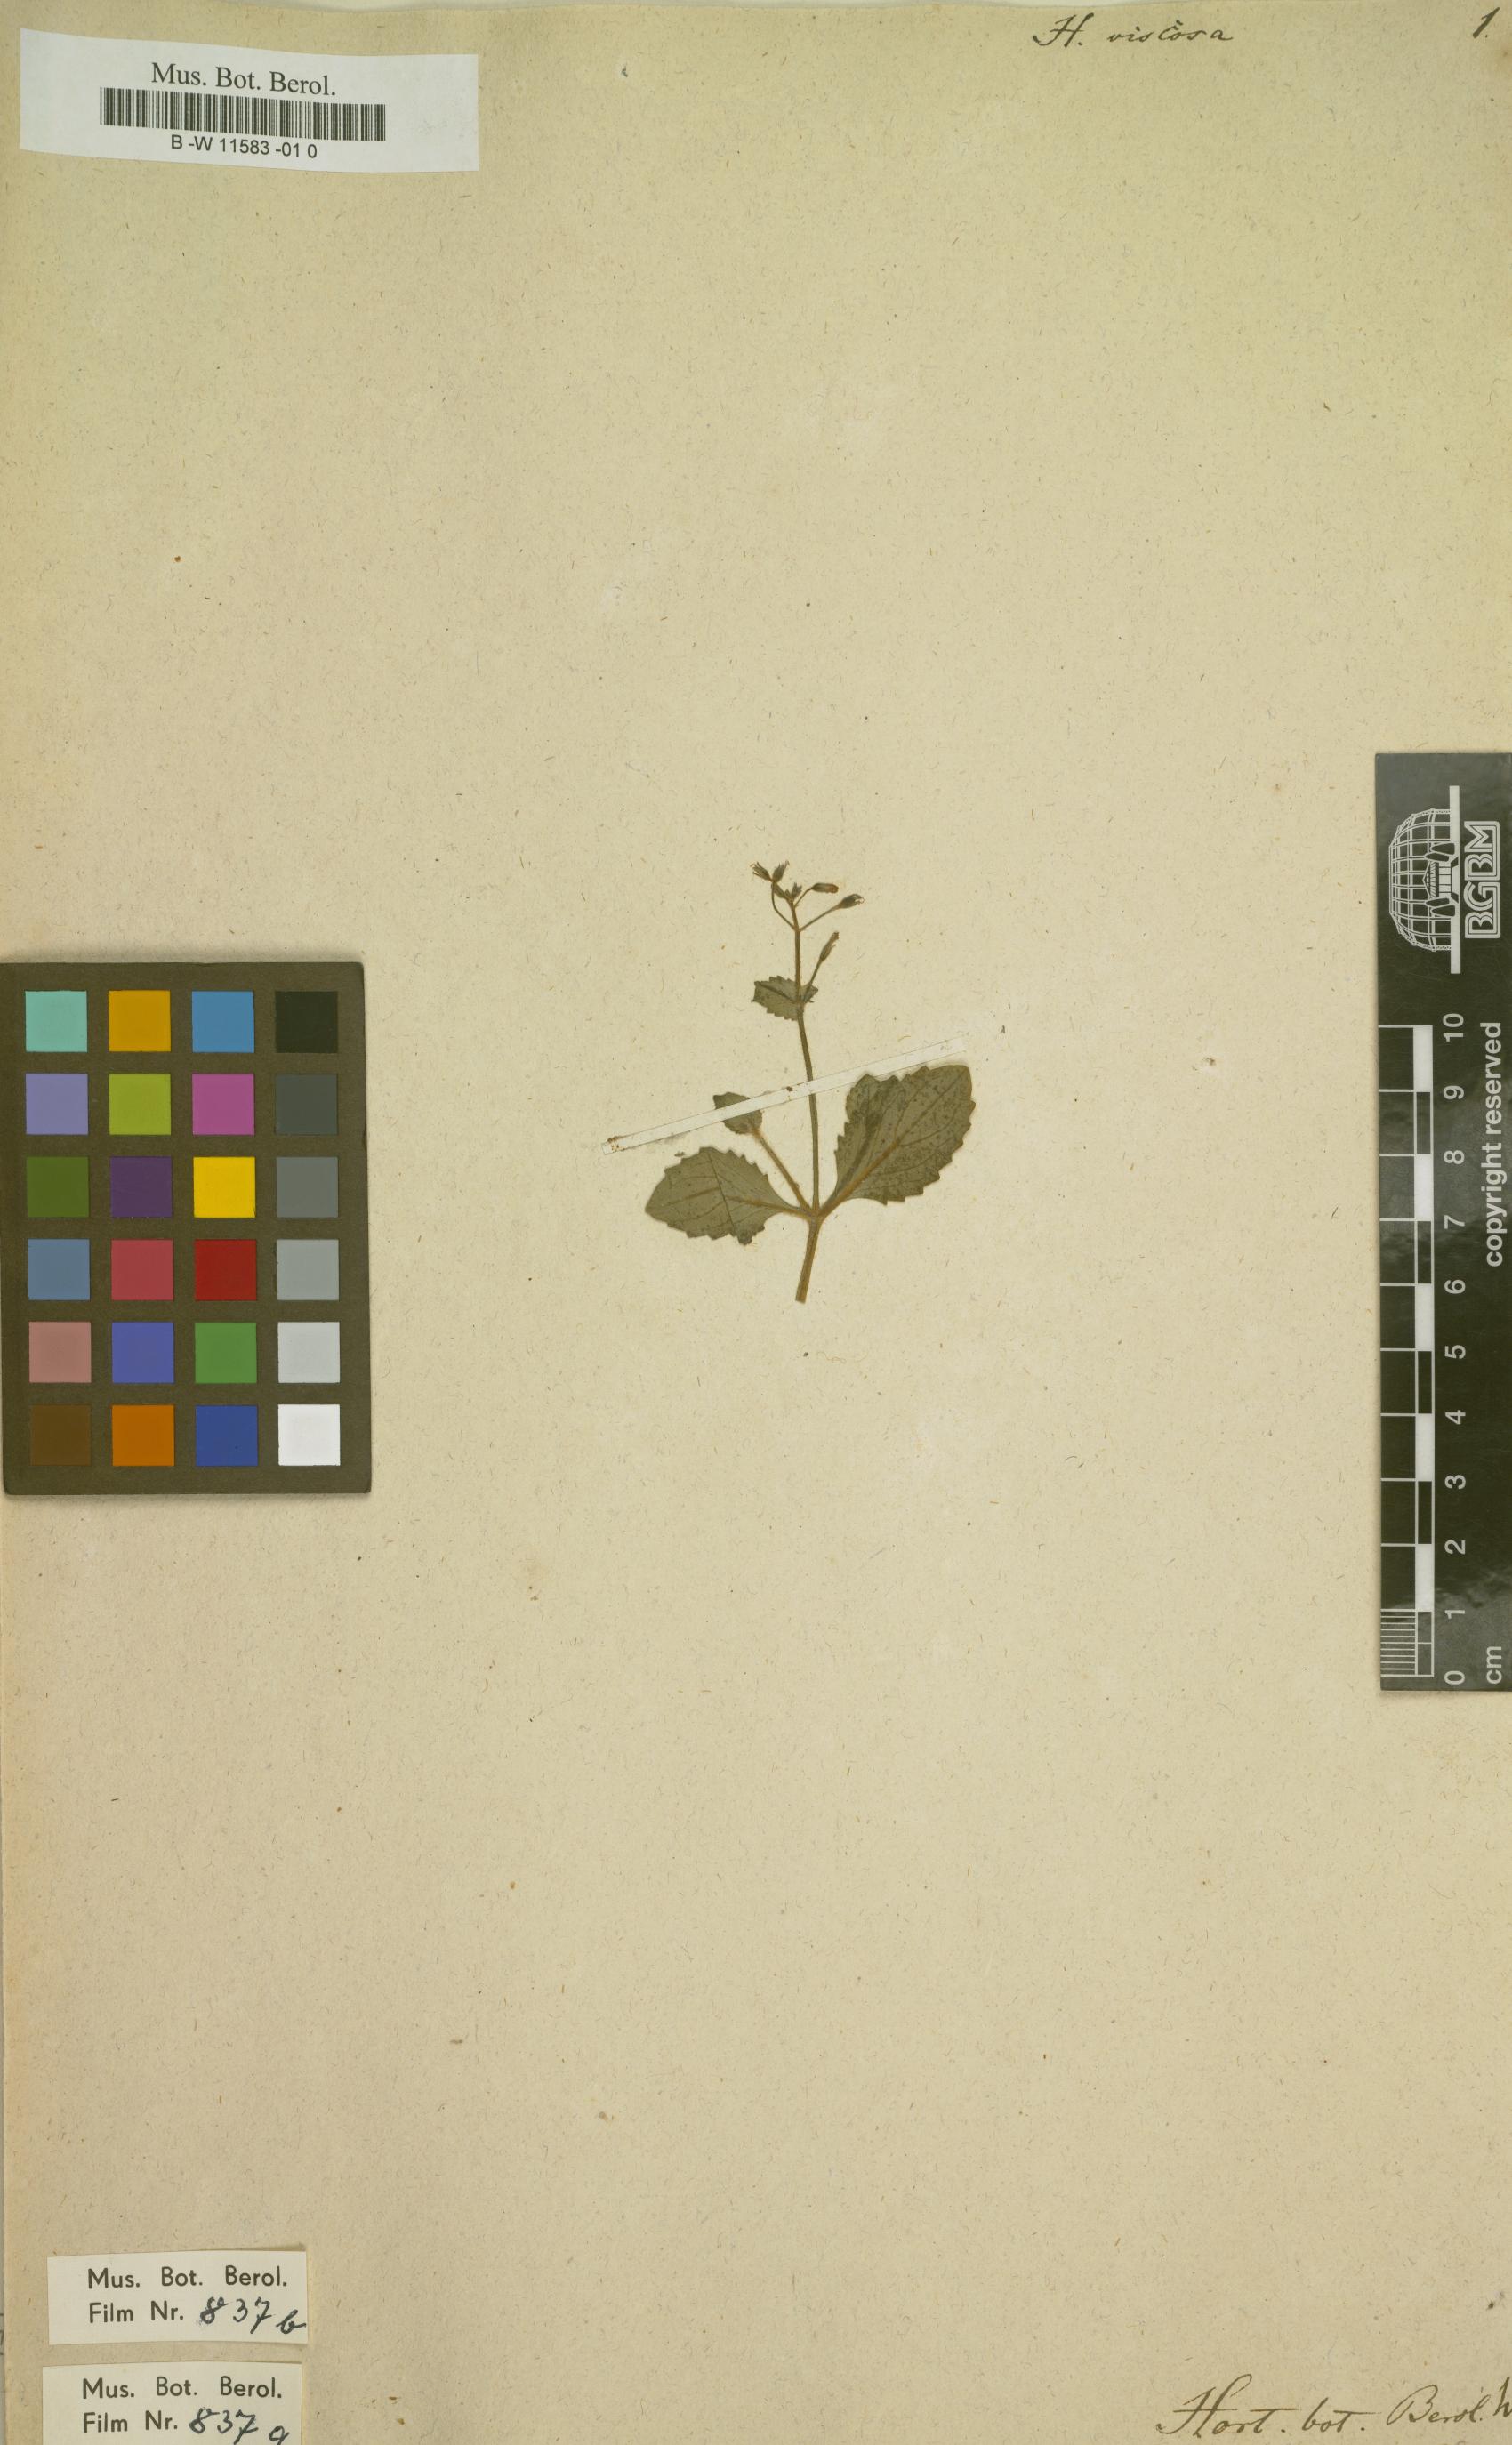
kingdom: Plantae
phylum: Tracheophyta
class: Magnoliopsida
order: Lamiales
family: Linderniaceae
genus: Yamazakia
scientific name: Yamazakia viscosa
